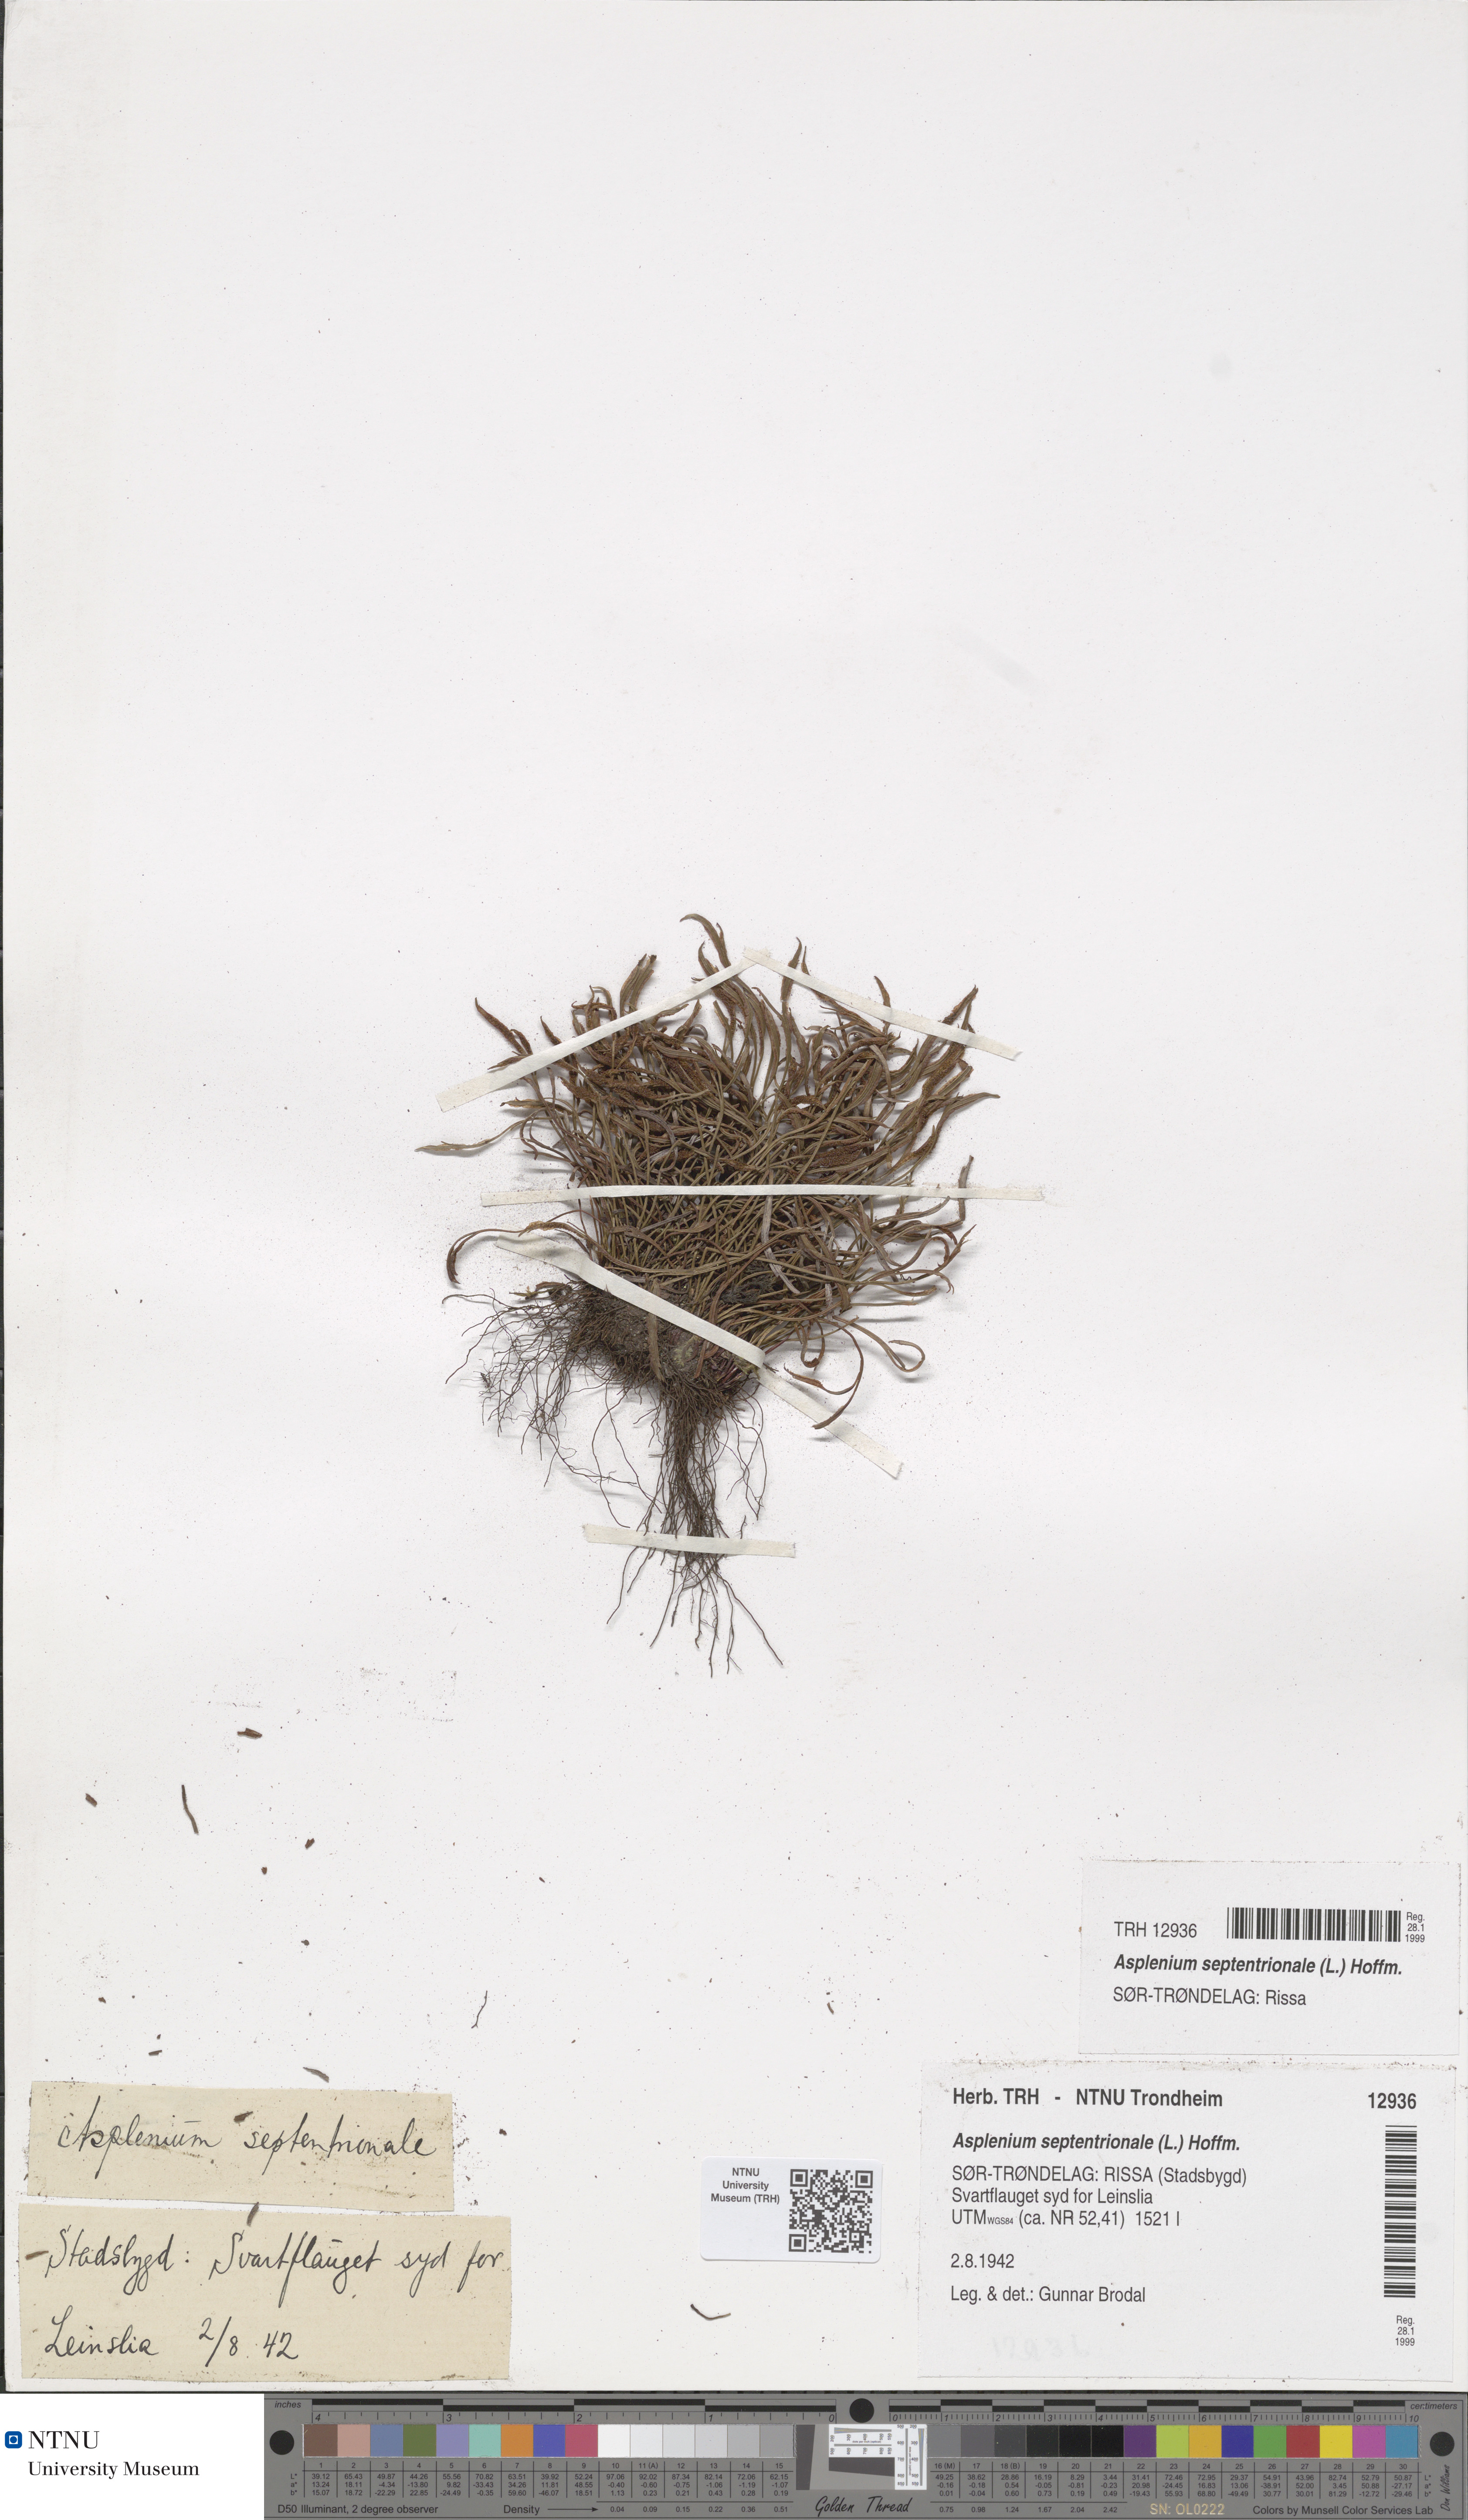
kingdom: Plantae
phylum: Tracheophyta
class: Polypodiopsida
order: Polypodiales
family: Aspleniaceae
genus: Asplenium
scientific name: Asplenium septentrionale
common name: Forked spleenwort
